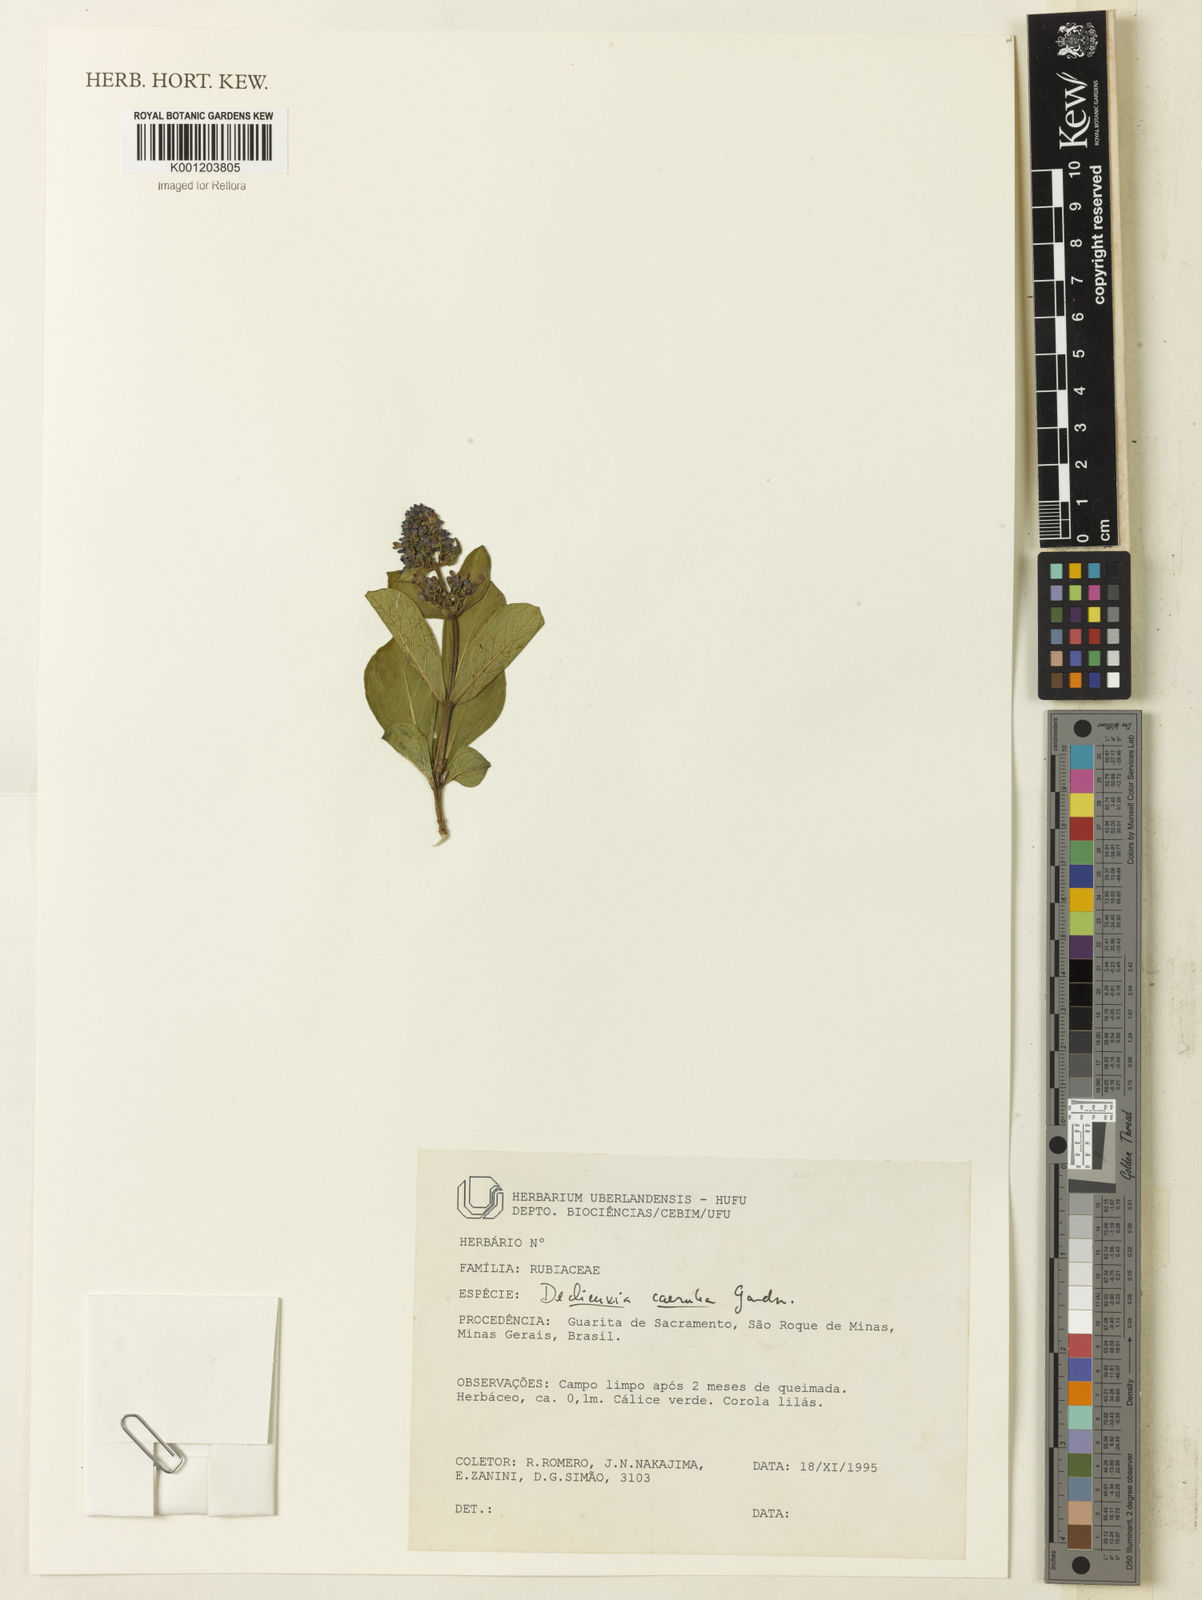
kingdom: Plantae
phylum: Tracheophyta
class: Magnoliopsida
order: Gentianales
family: Rubiaceae
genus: Declieuxia
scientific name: Declieuxia coerulea
